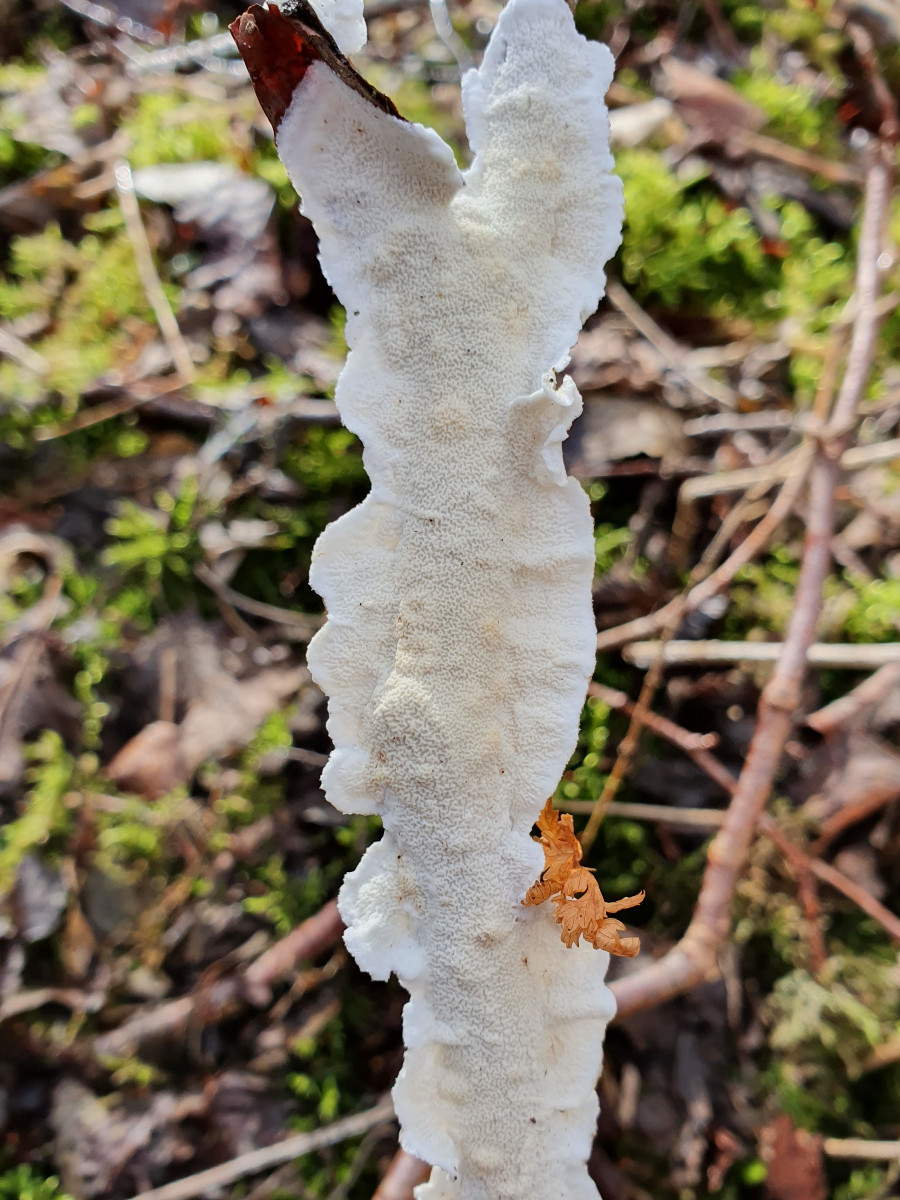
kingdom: Fungi
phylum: Basidiomycota
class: Agaricomycetes
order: Polyporales
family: Irpicaceae
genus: Byssomerulius
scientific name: Byssomerulius corium
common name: læder-åresvamp
